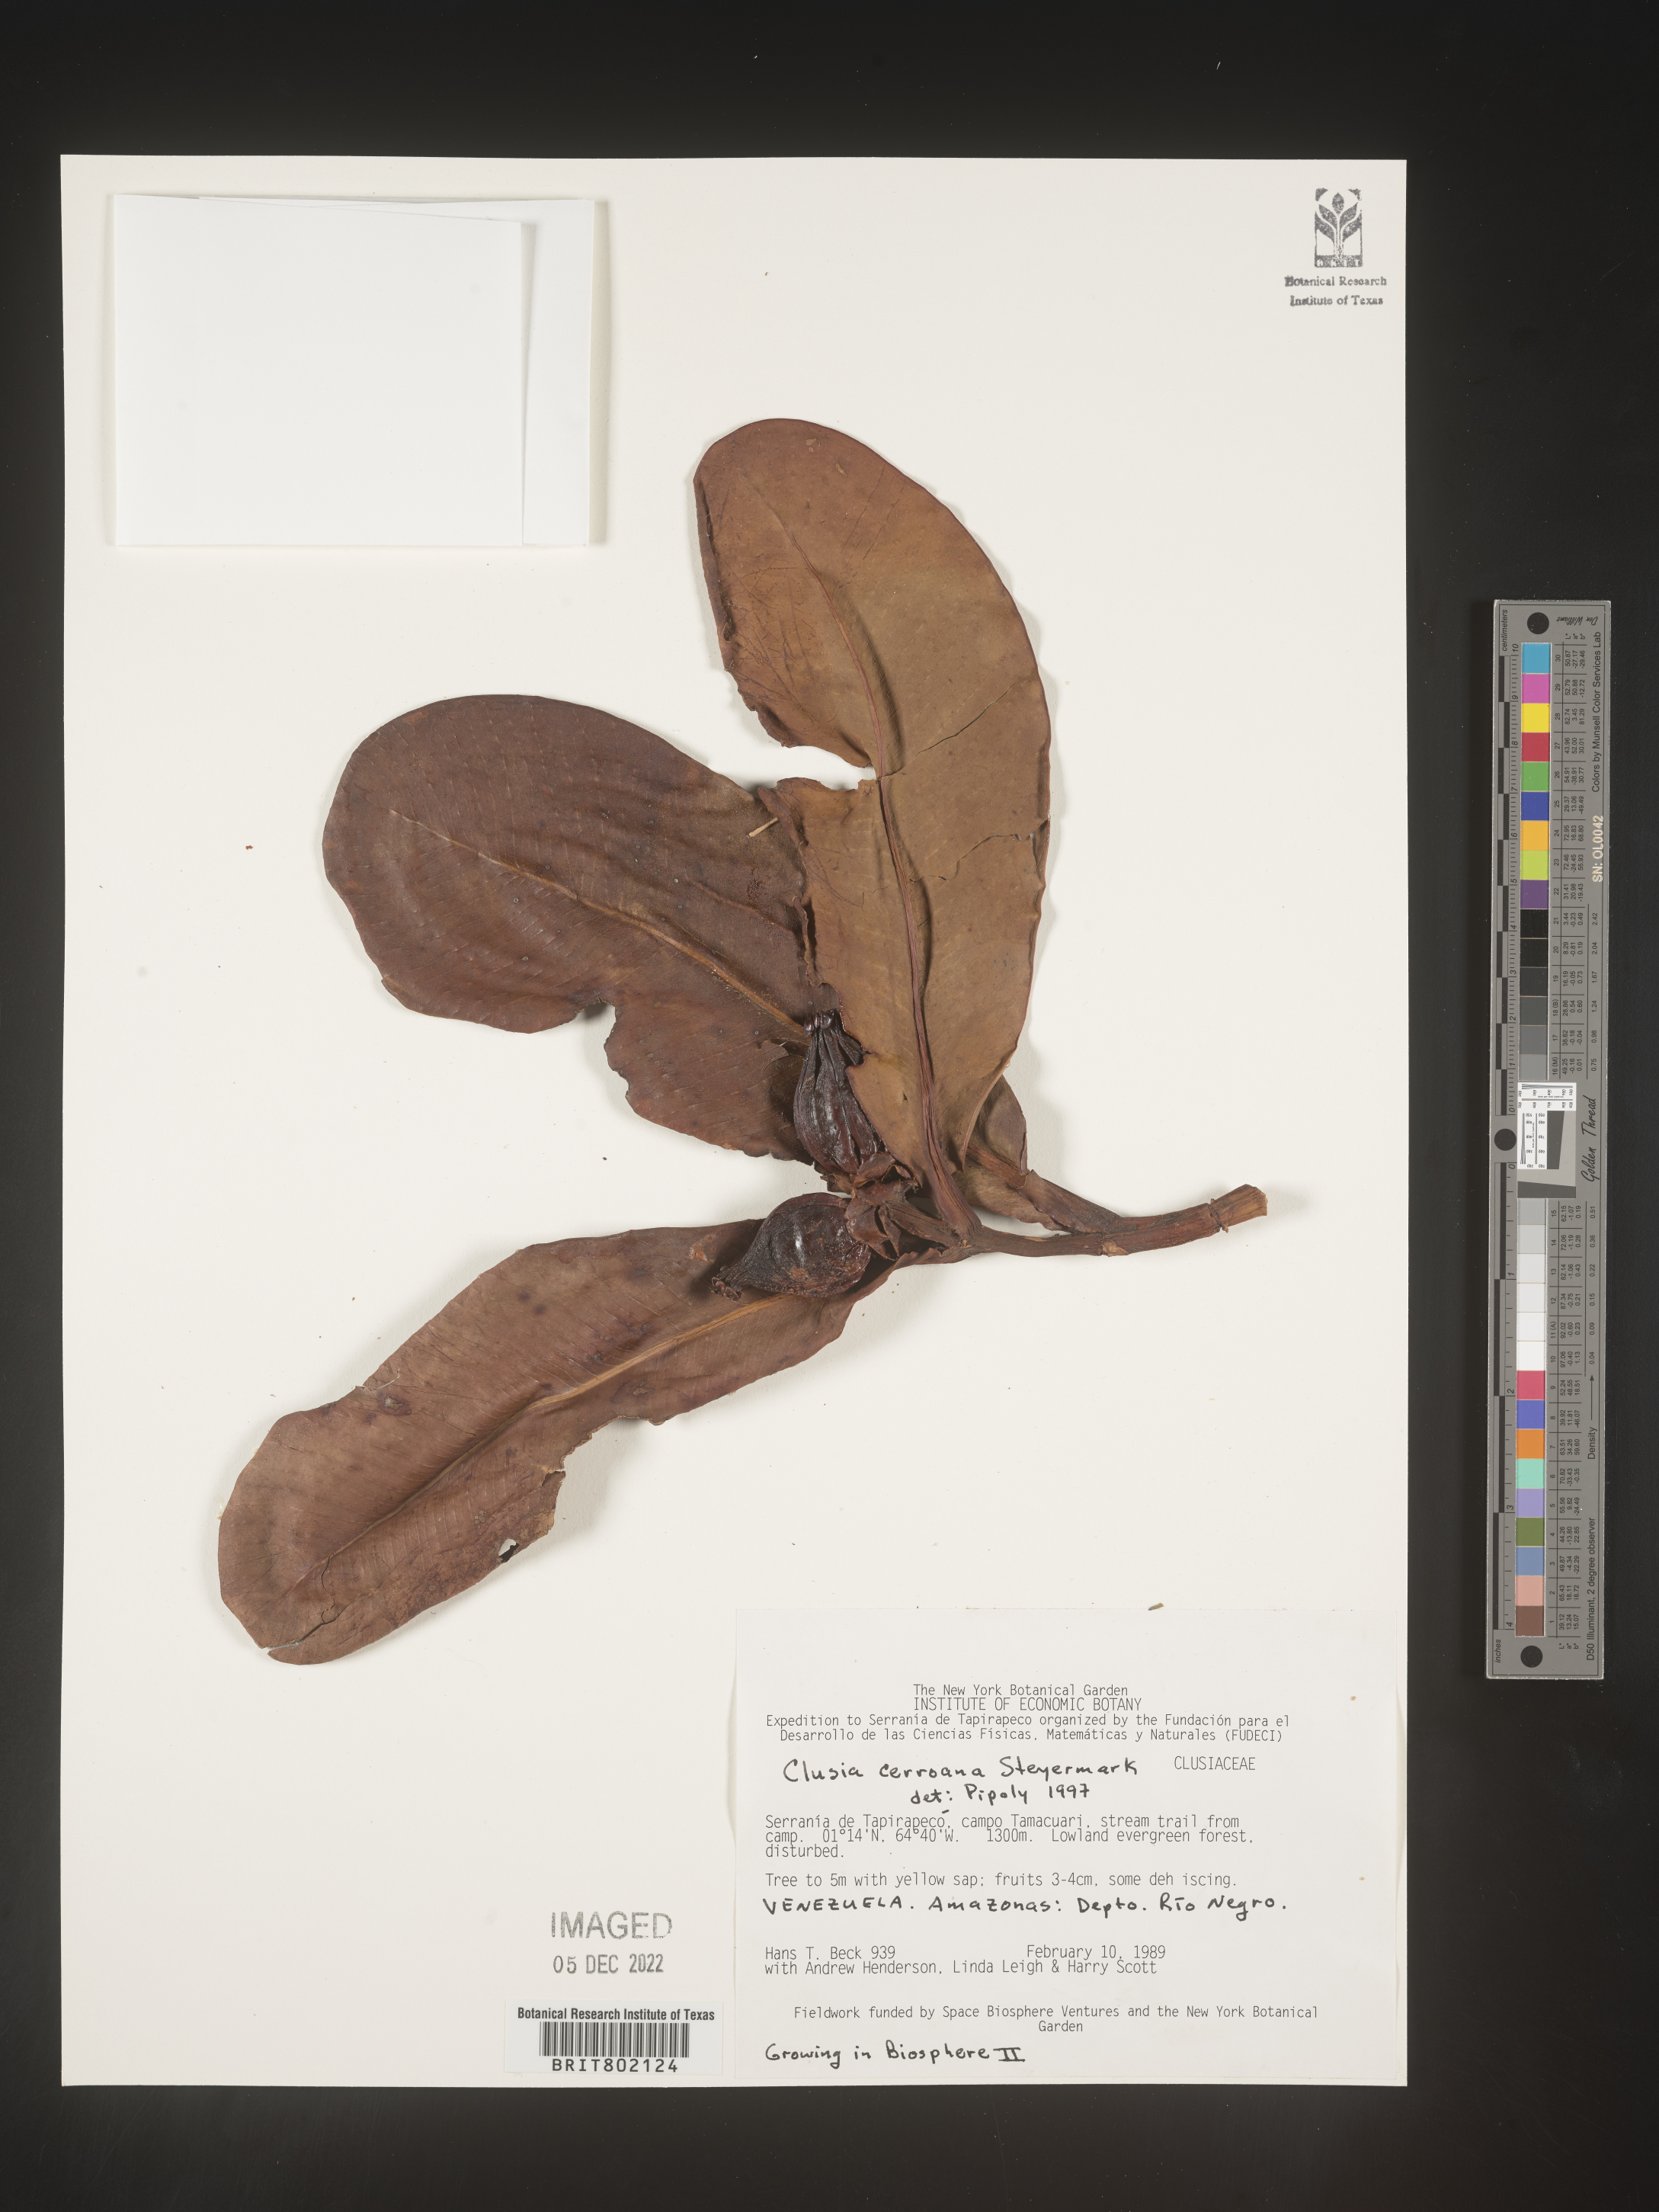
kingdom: Plantae
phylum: Tracheophyta
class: Magnoliopsida
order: Malpighiales
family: Clusiaceae
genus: Clusia
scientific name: Clusia cerroana
